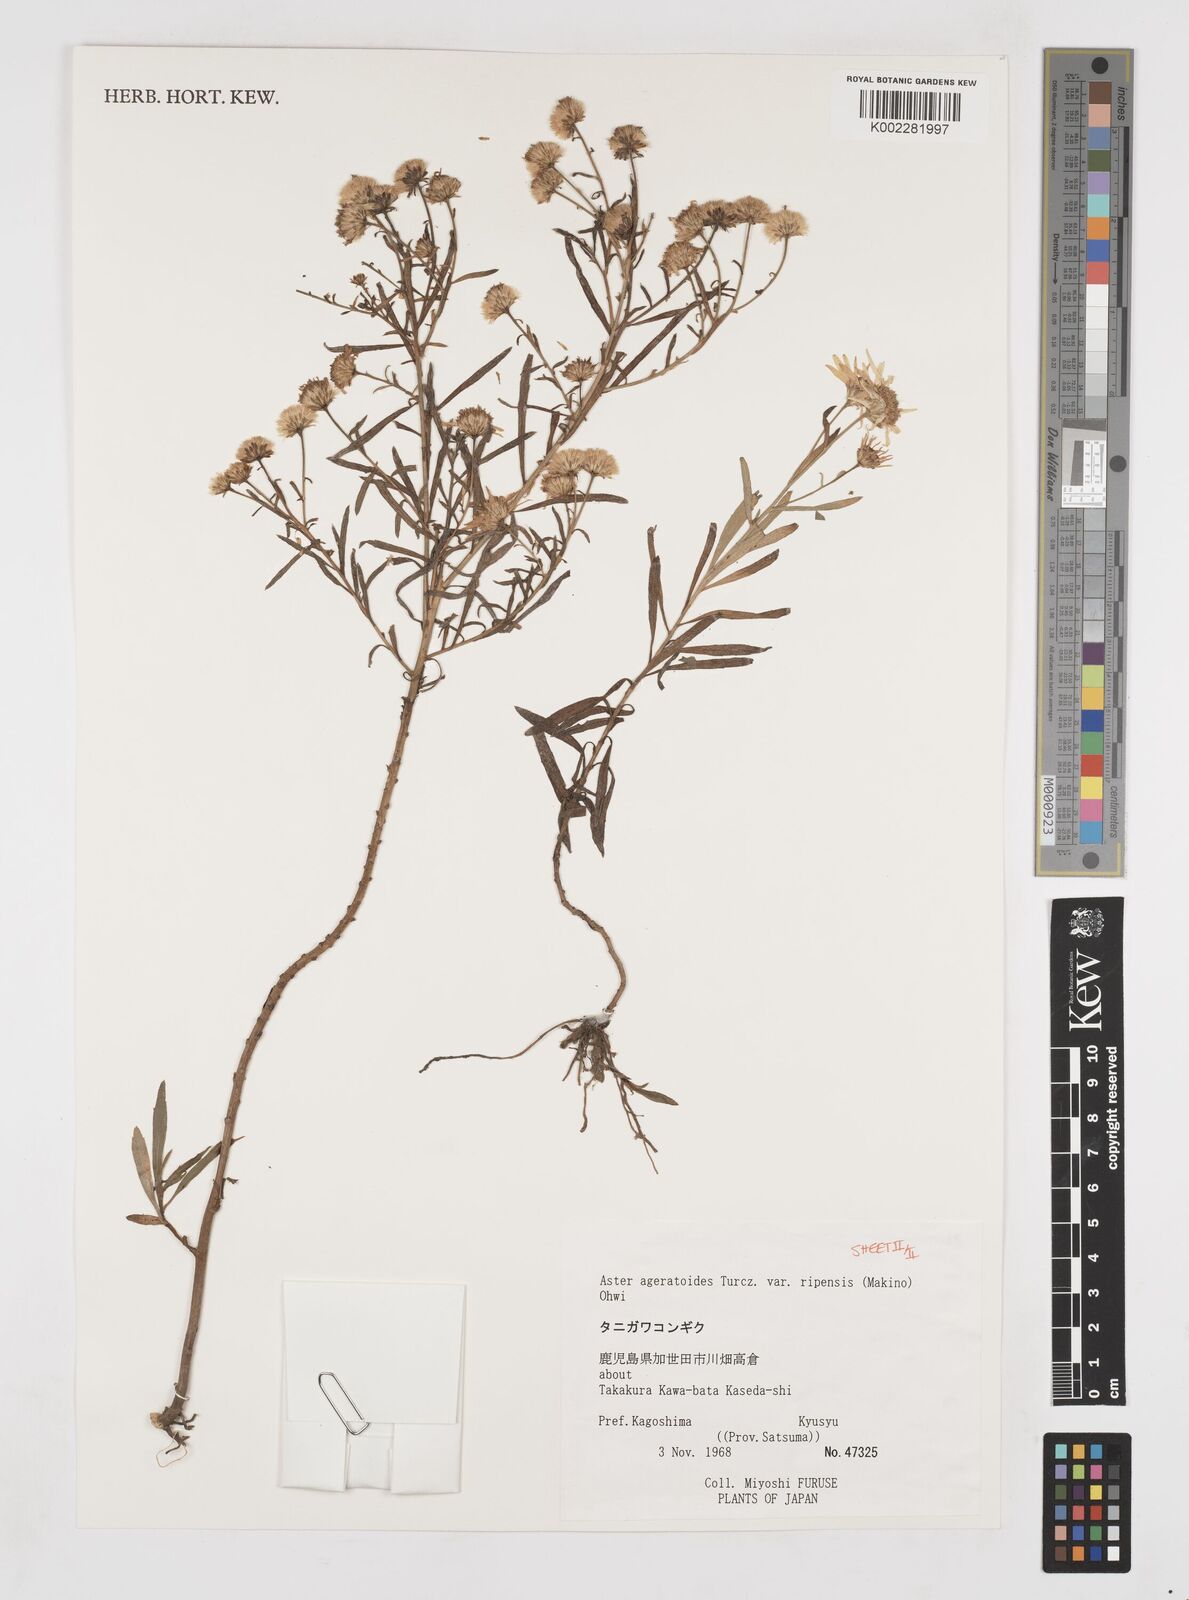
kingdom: Plantae
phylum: Tracheophyta
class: Magnoliopsida
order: Asterales
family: Asteraceae
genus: Aster
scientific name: Aster trinervius
